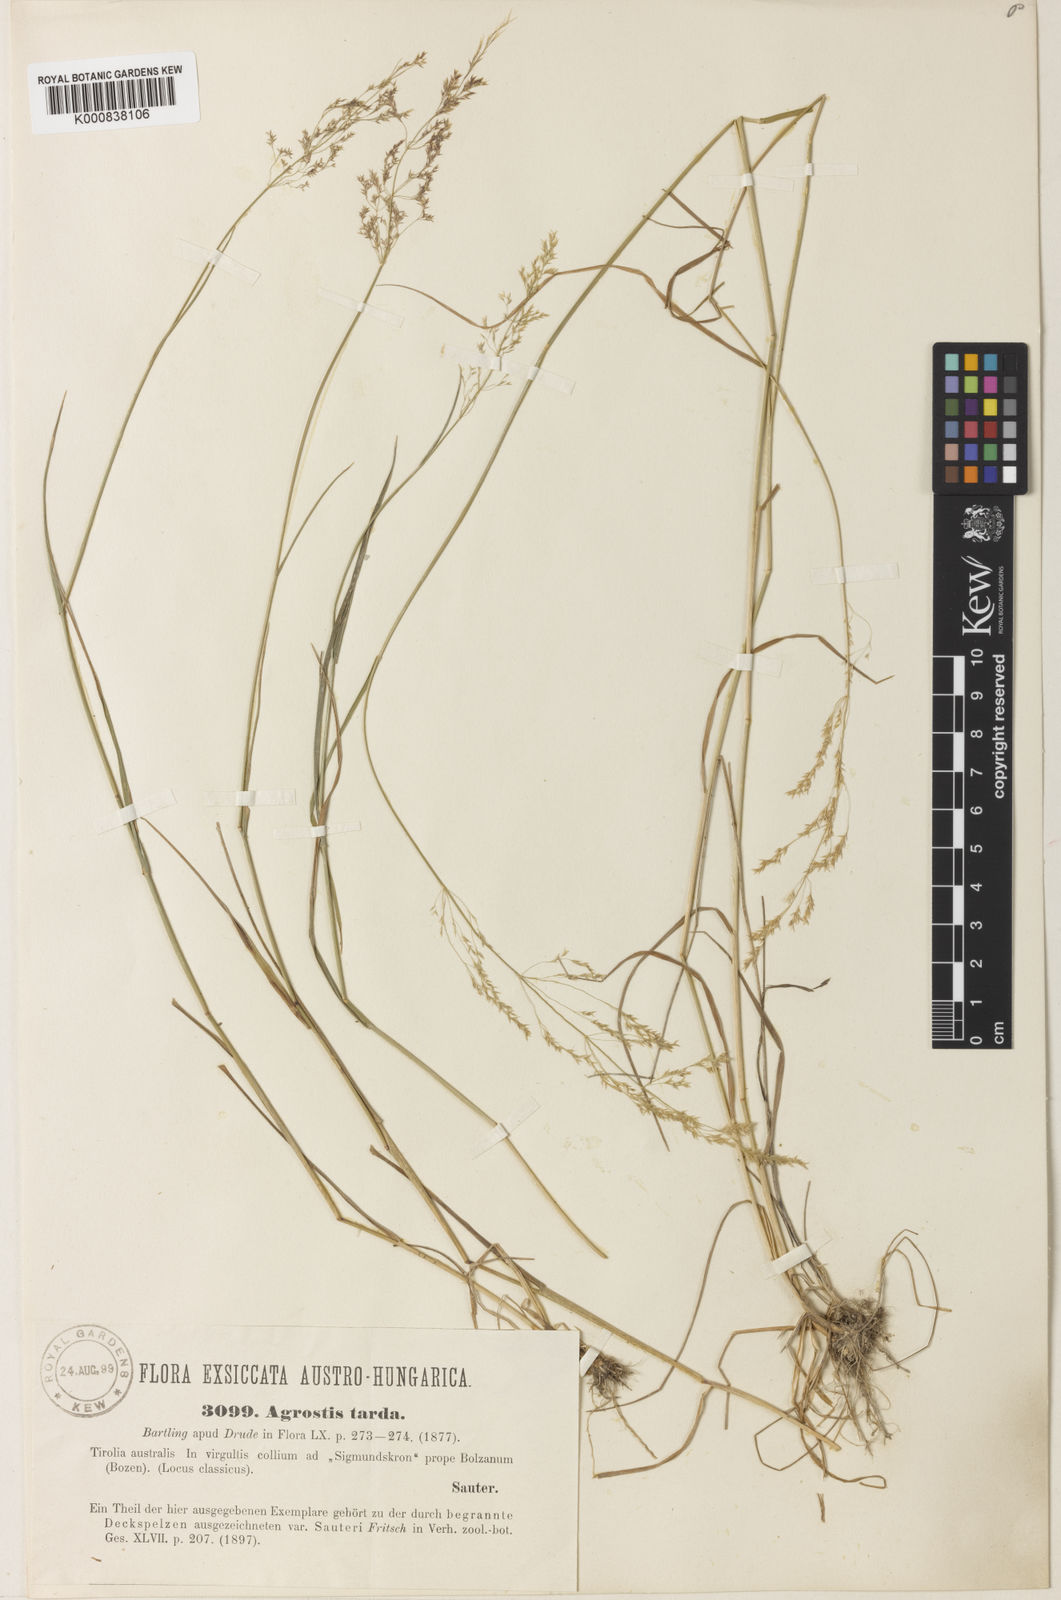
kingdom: Plantae
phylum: Tracheophyta
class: Liliopsida
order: Poales
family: Poaceae
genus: Agrostis
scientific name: Agrostis capillaris
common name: Colonial bentgrass
